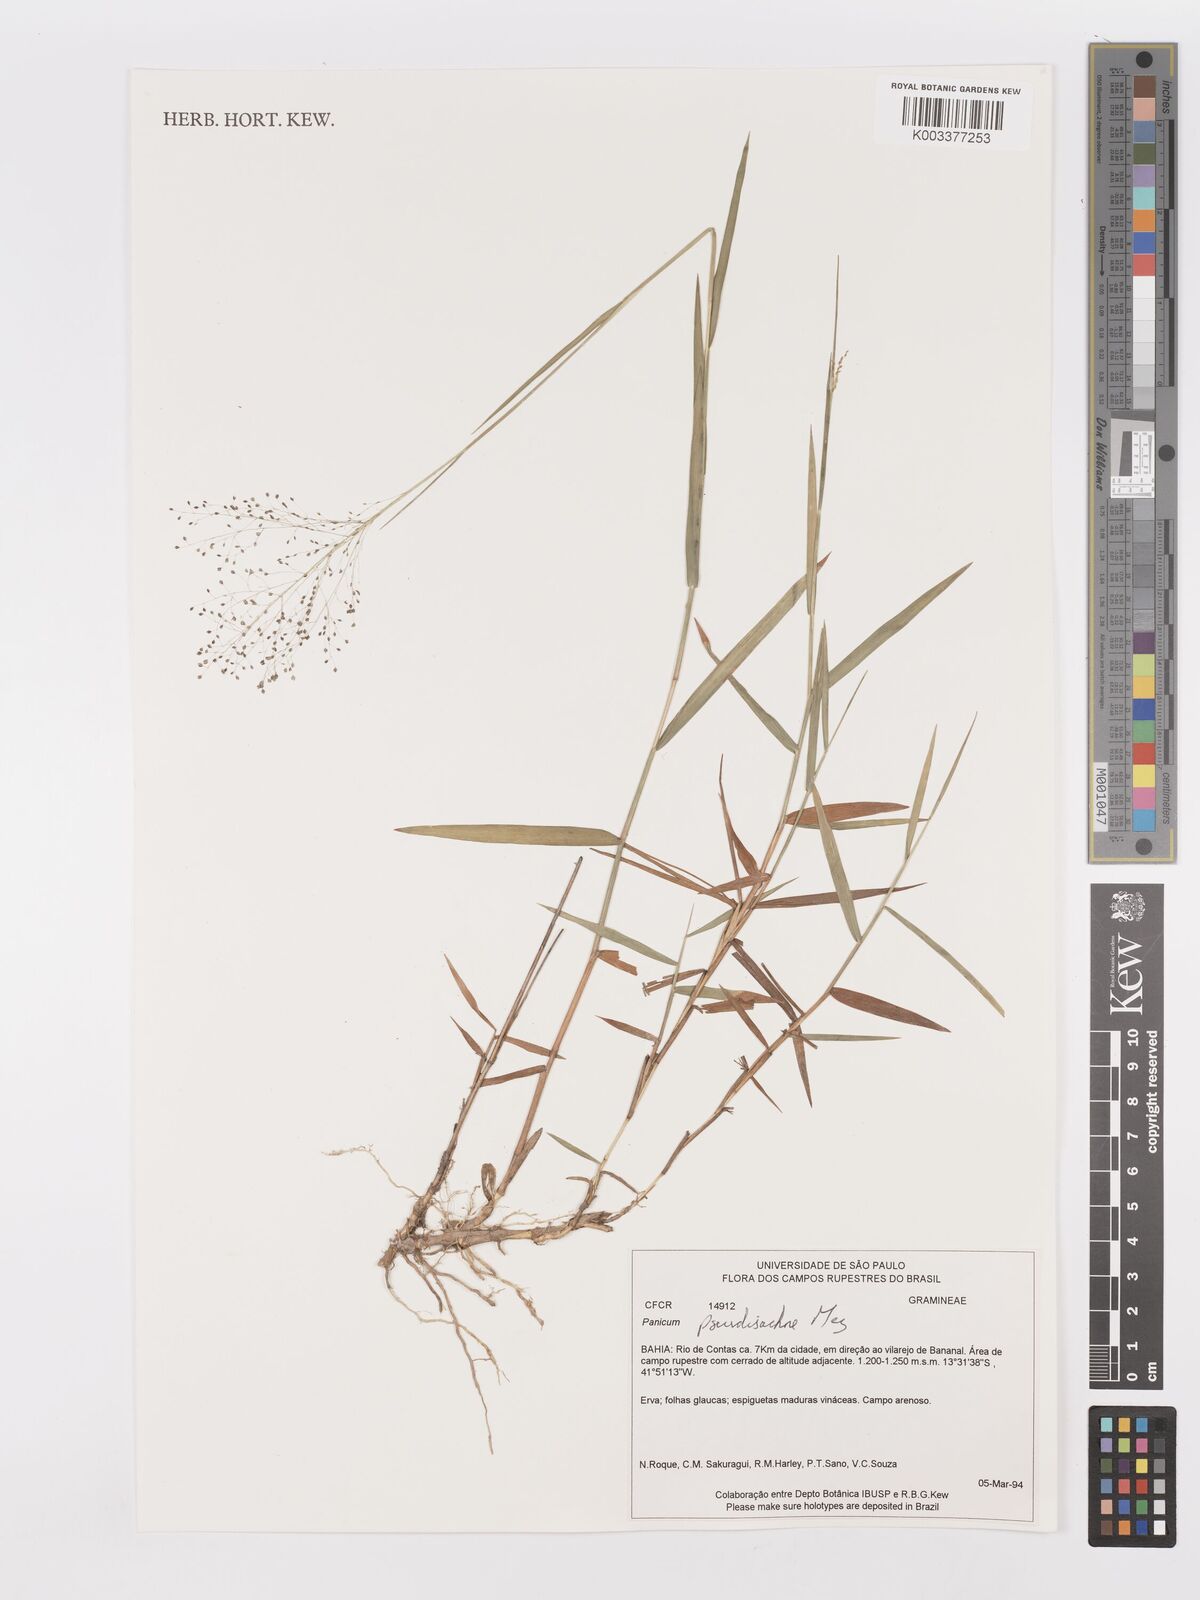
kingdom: Plantae
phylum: Tracheophyta
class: Liliopsida
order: Poales
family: Poaceae
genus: Trichanthecium
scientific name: Trichanthecium pseudisachne
